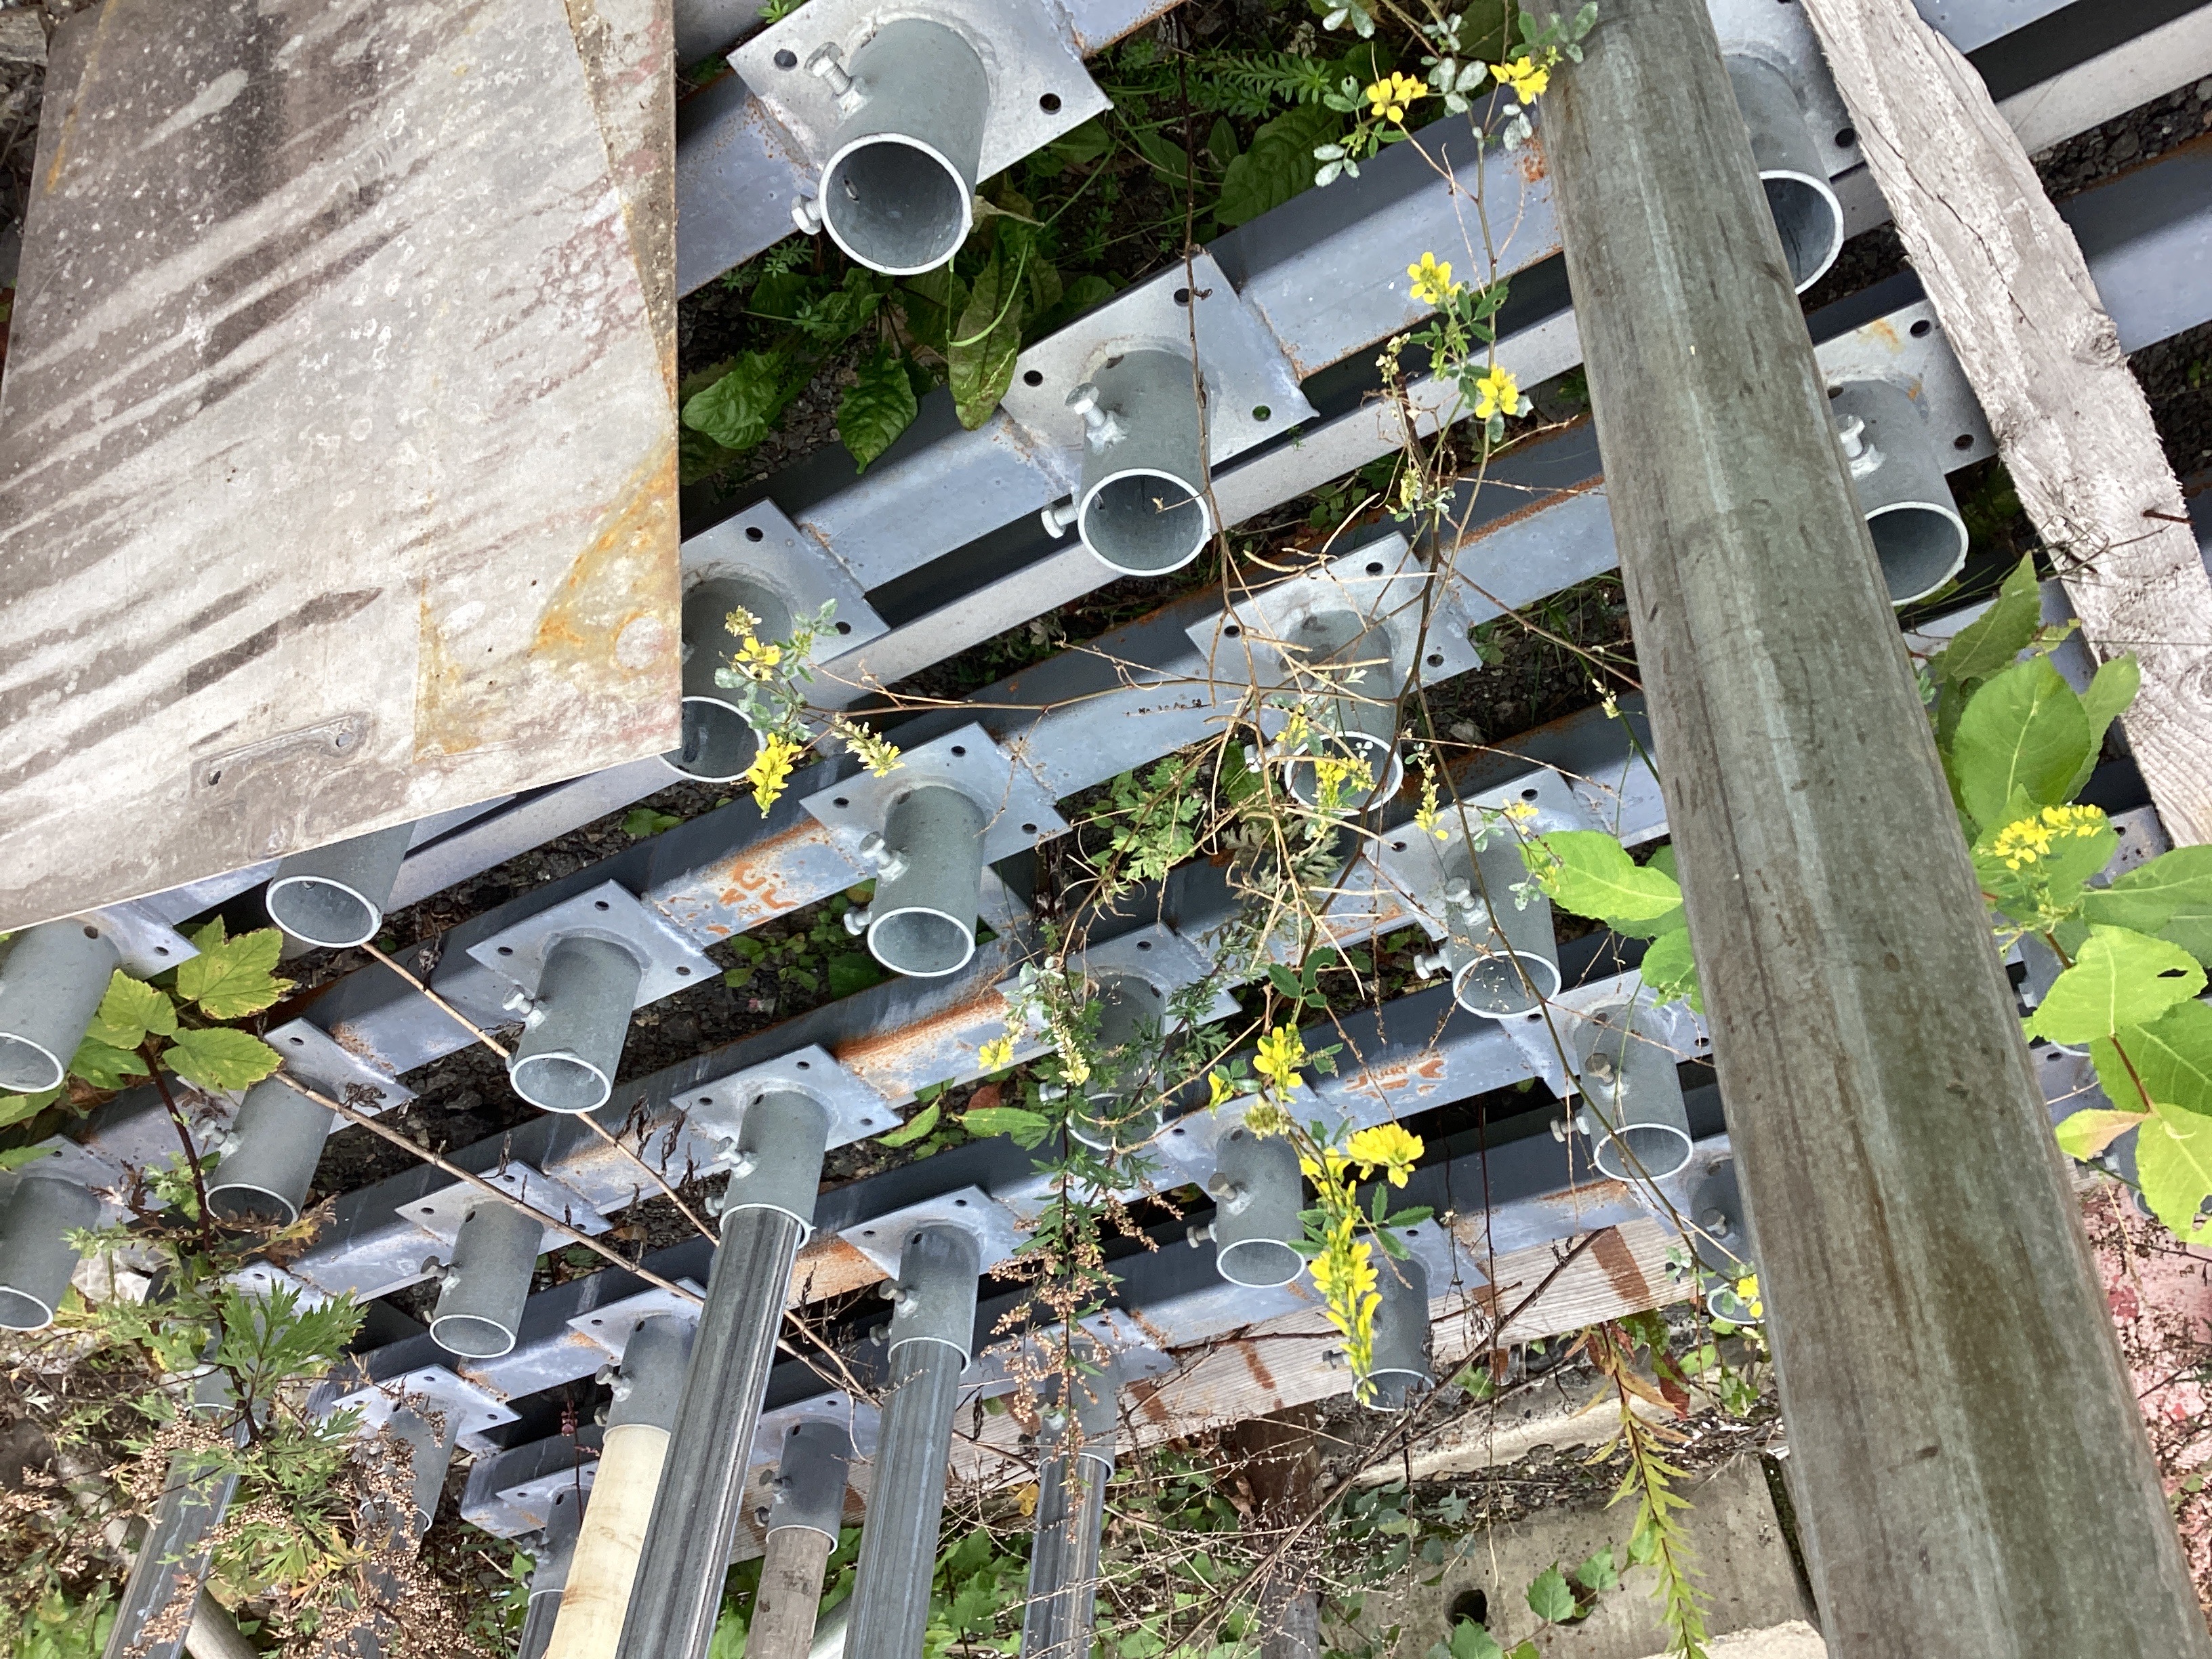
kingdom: Plantae
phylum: Tracheophyta
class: Magnoliopsida
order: Fabales
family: Fabaceae
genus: Melilotus
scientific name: Melilotus officinalis
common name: legesteinkløver
